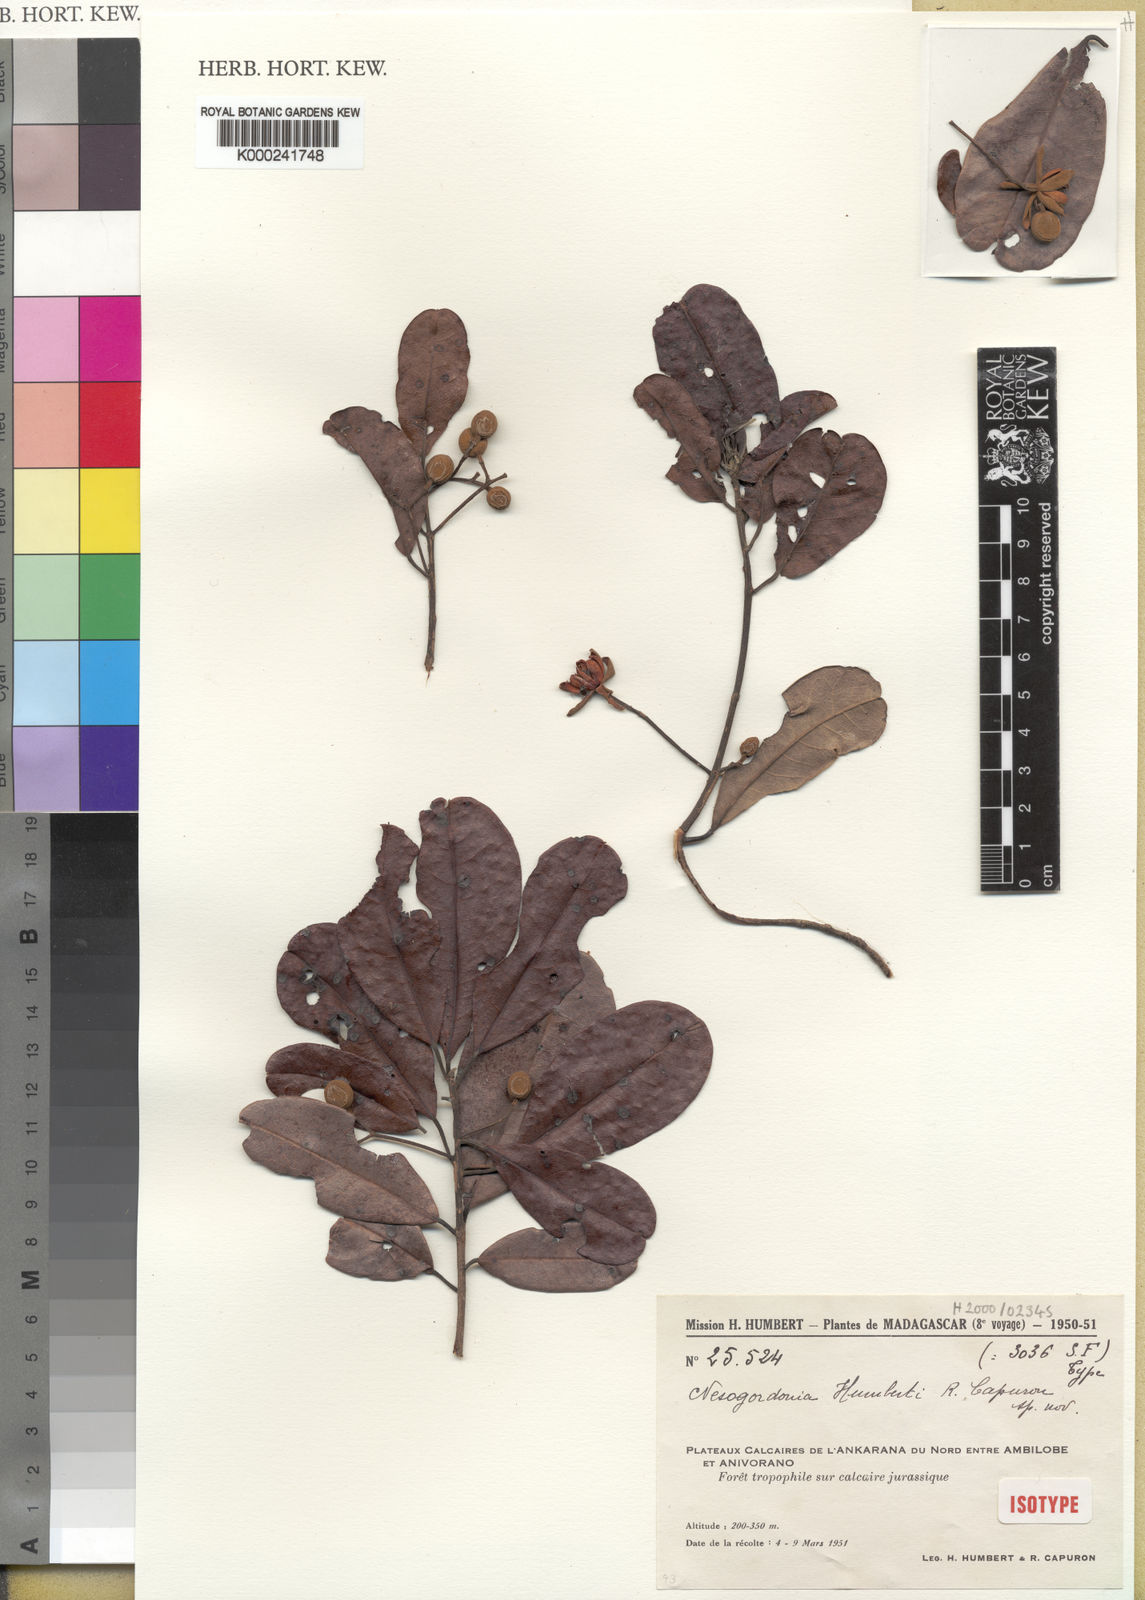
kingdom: Plantae
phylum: Tracheophyta
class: Magnoliopsida
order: Malvales
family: Malvaceae
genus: Nesogordonia
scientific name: Nesogordonia humbertii
